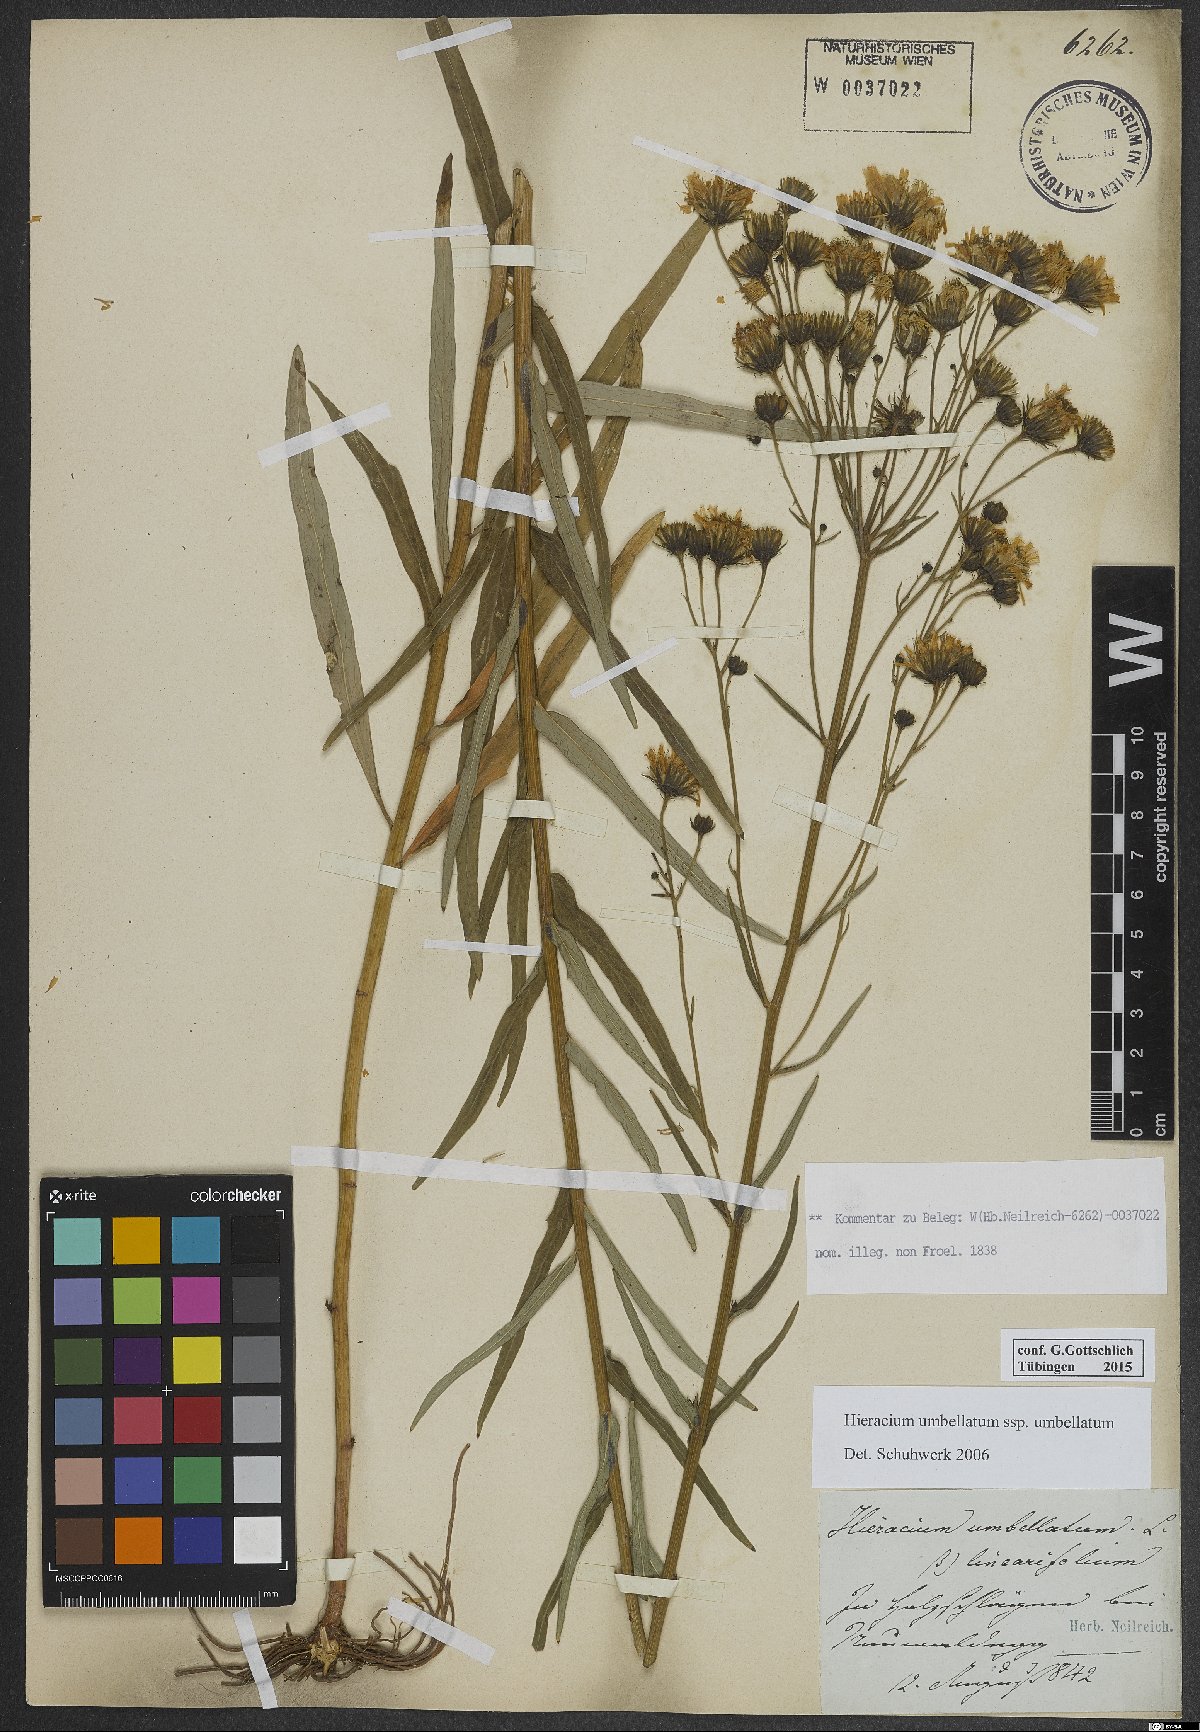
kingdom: Plantae
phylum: Tracheophyta
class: Magnoliopsida
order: Asterales
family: Asteraceae
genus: Hieracium
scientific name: Hieracium umbellatum
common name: Northern hawkweed
